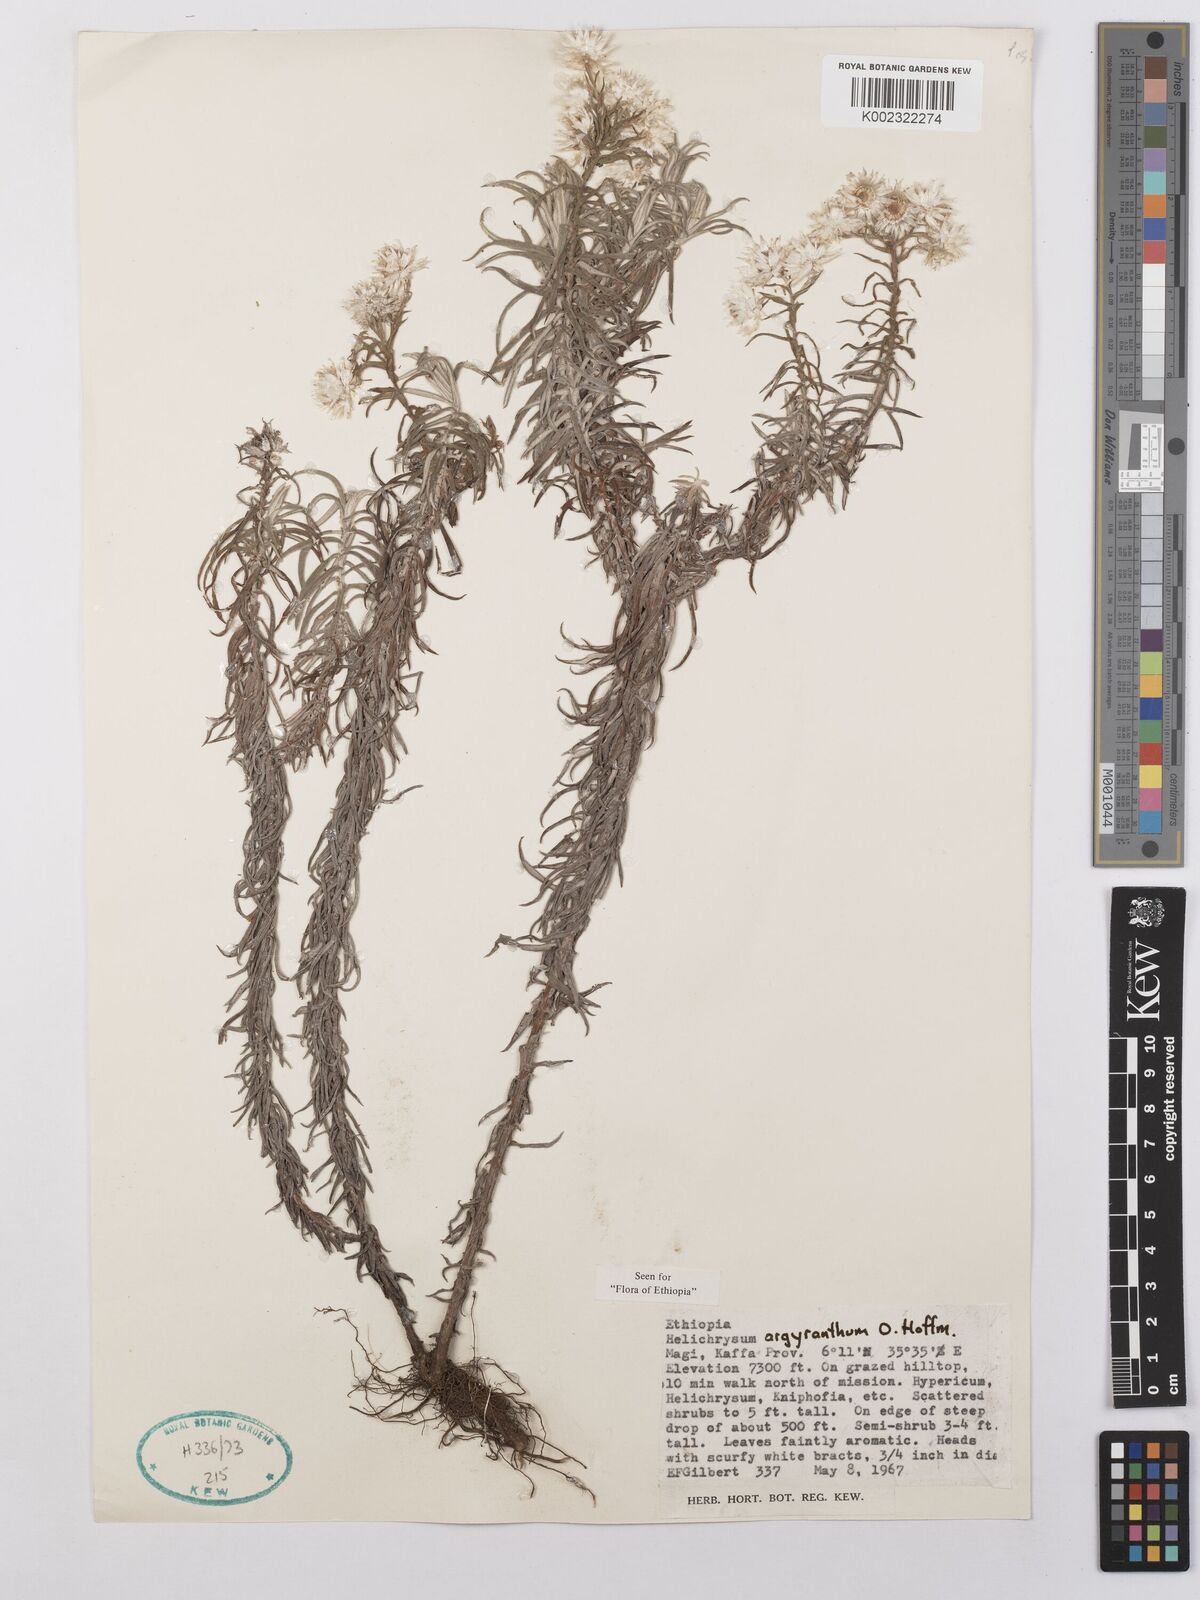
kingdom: Plantae
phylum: Tracheophyta
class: Magnoliopsida
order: Asterales
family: Asteraceae
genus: Helichrysum
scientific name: Helichrysum argyranthum
